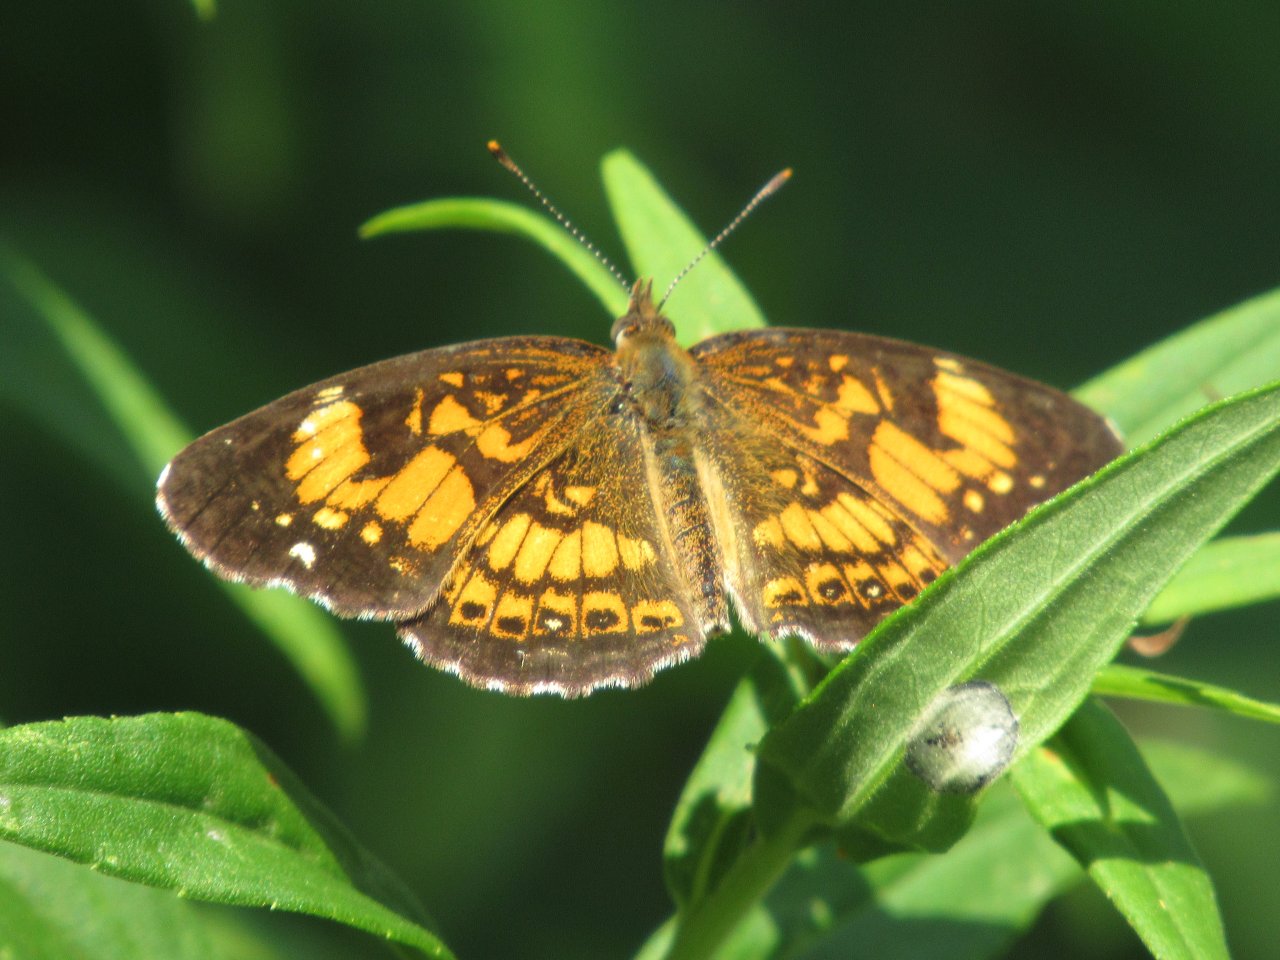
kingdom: Animalia
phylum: Arthropoda
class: Insecta
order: Lepidoptera
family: Nymphalidae
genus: Chlosyne
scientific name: Chlosyne nycteis
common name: Silvery Checkerspot
